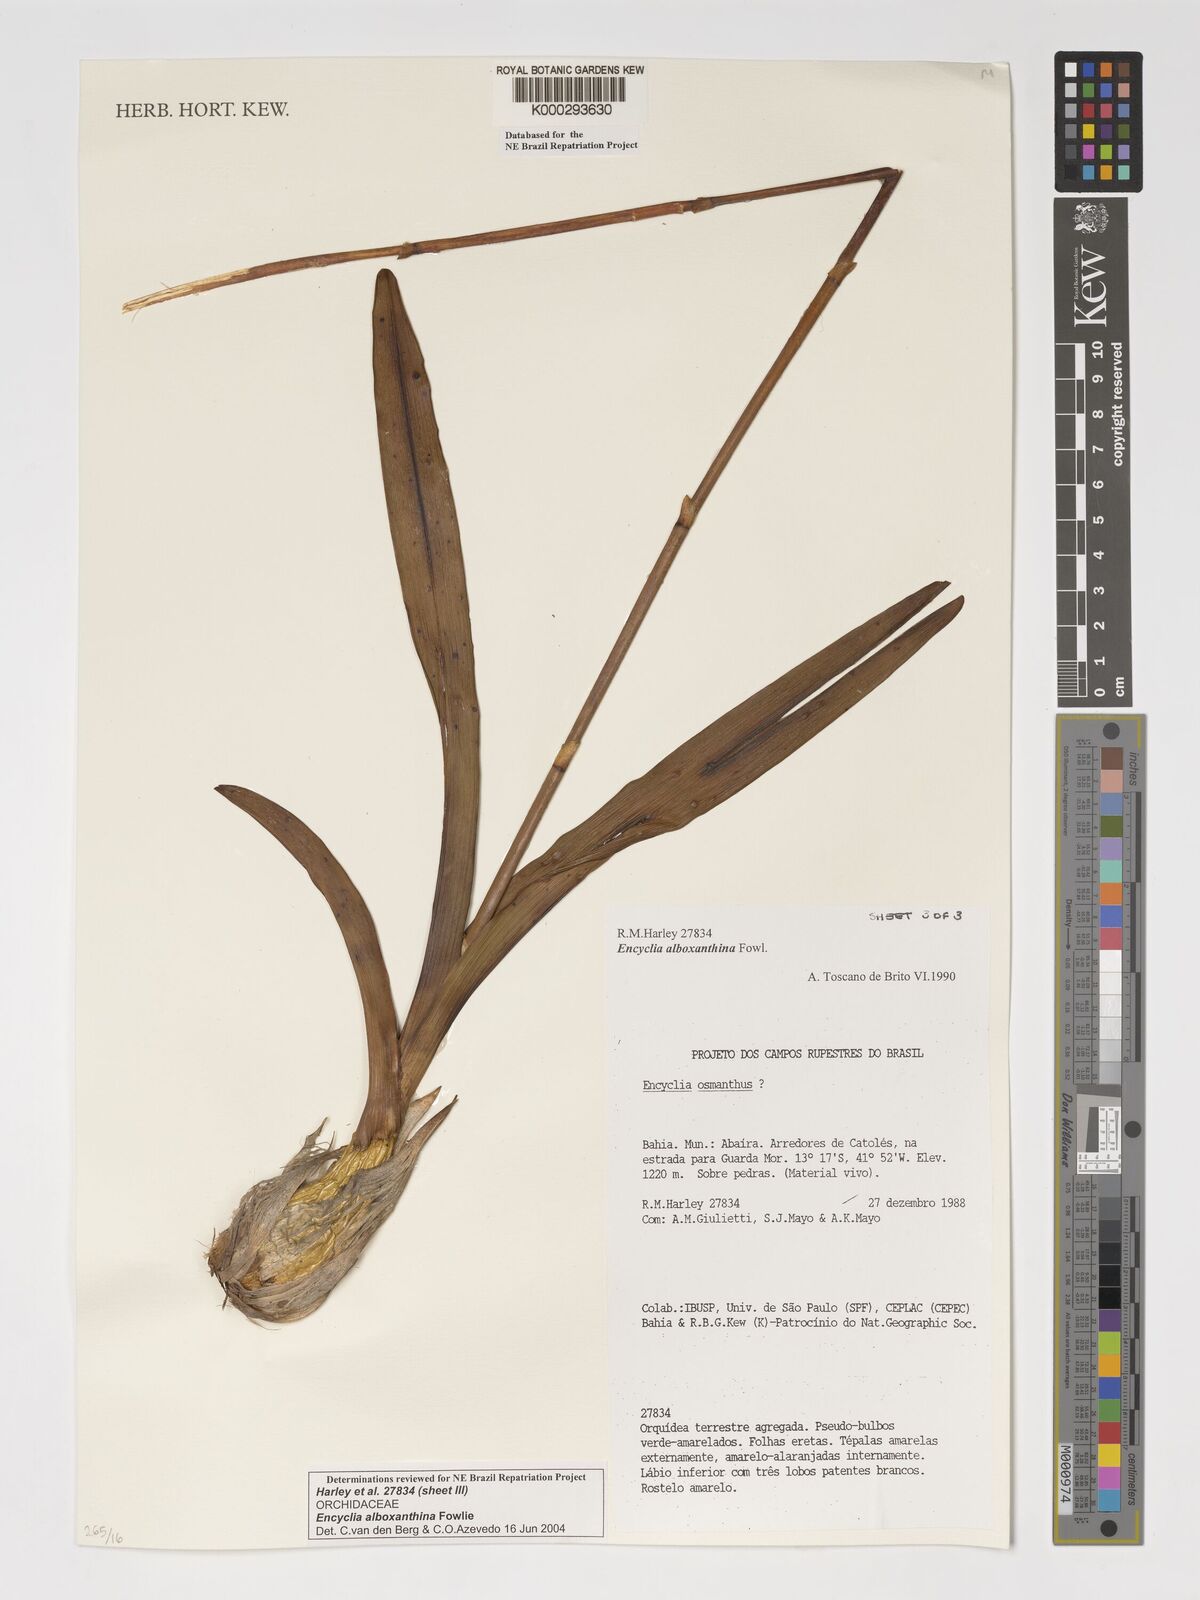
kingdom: Plantae
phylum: Tracheophyta
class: Liliopsida
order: Asparagales
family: Orchidaceae
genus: Encyclia
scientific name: Encyclia alboxanthina
